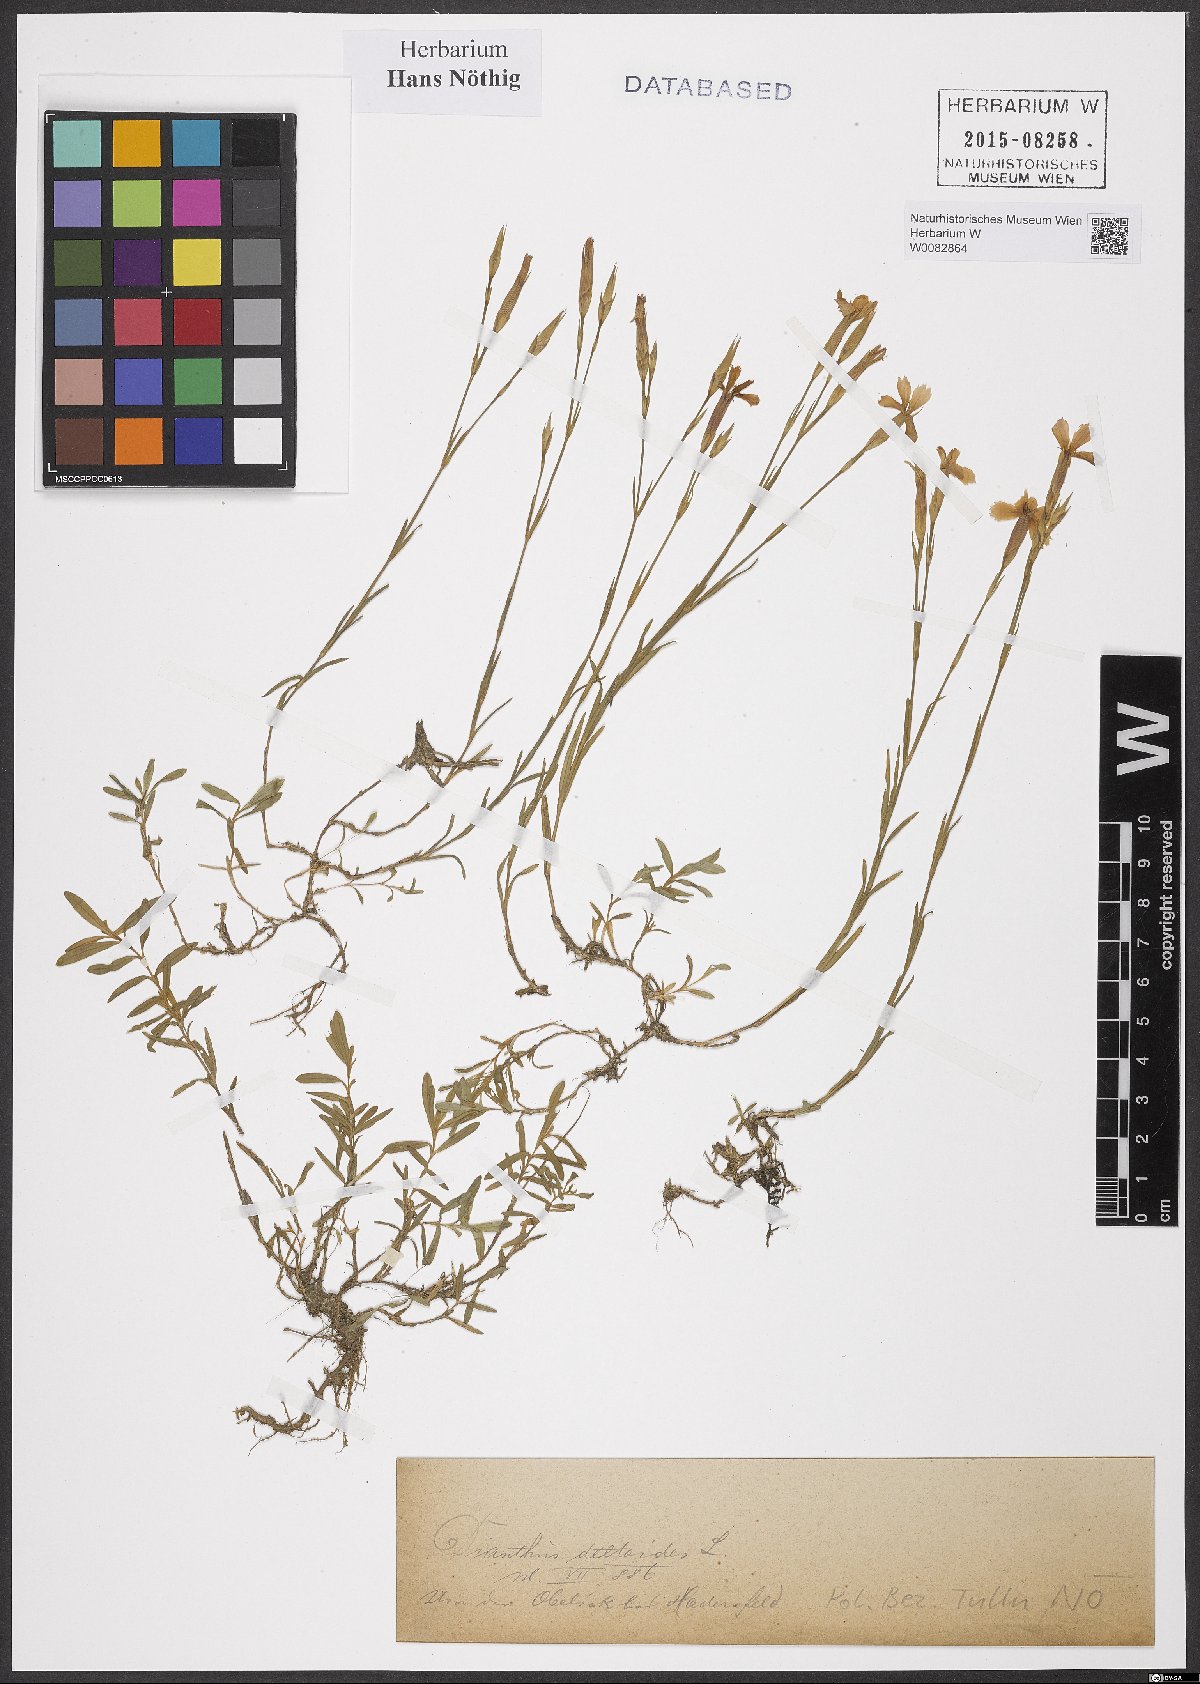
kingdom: Plantae
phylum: Tracheophyta
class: Magnoliopsida
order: Caryophyllales
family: Caryophyllaceae
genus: Dianthus
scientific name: Dianthus deltoides
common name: Maiden pink
